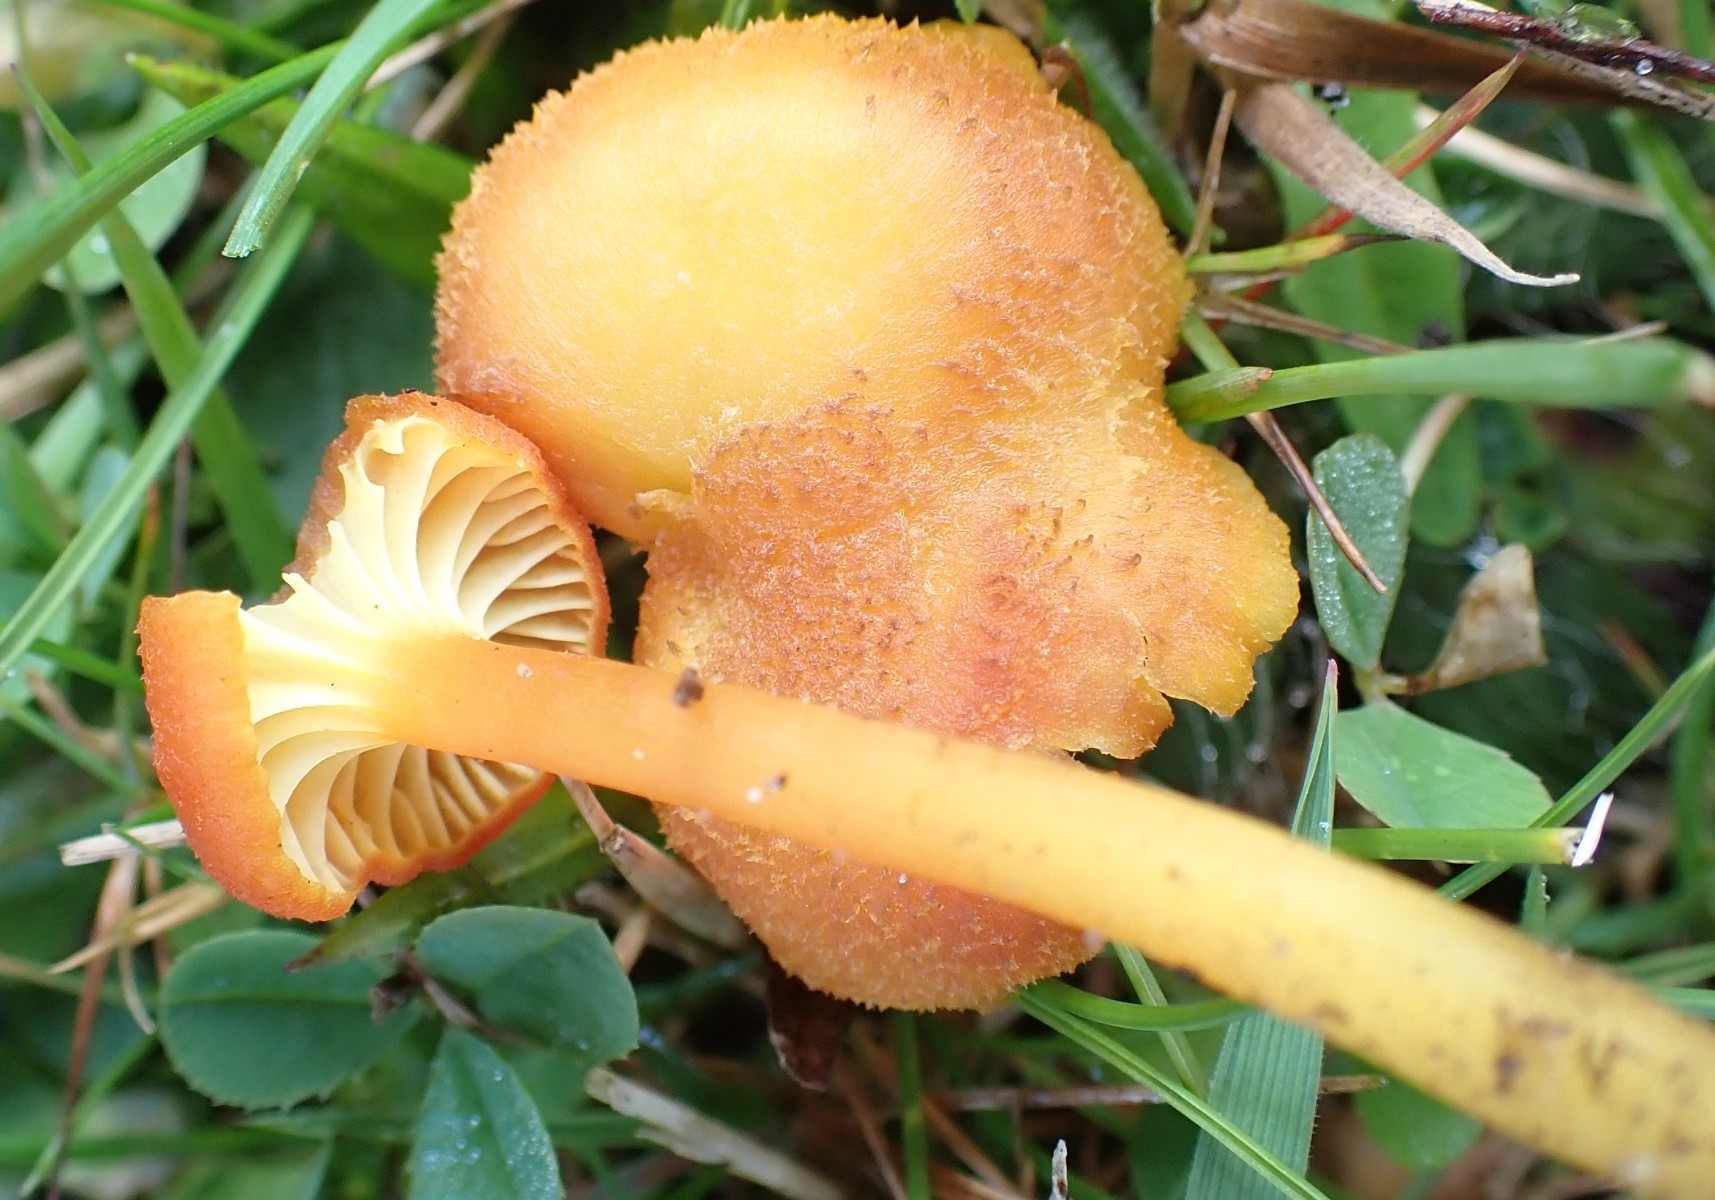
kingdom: Fungi
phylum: Basidiomycota
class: Agaricomycetes
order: Agaricales
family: Hygrophoraceae
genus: Hygrocybe
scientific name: Hygrocybe cantharellus
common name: kantarel-vokshat
